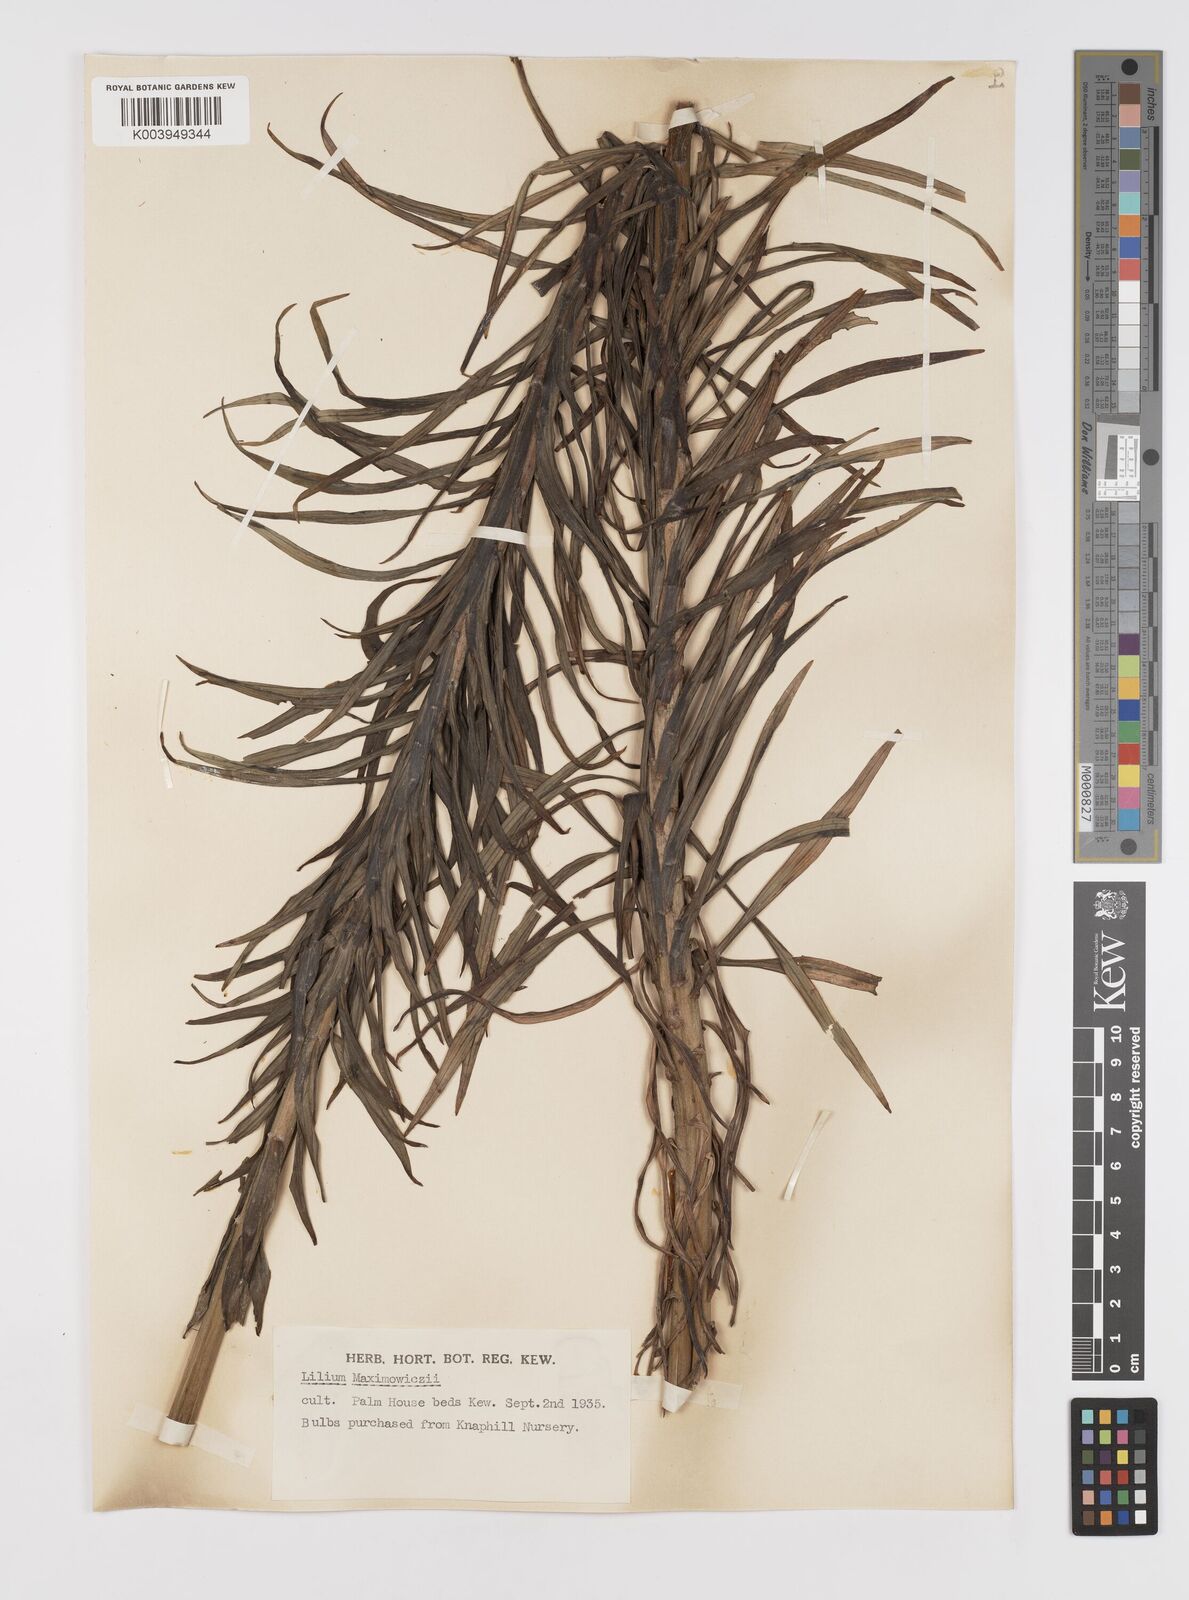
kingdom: Plantae
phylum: Tracheophyta
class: Liliopsida
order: Liliales
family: Liliaceae
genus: Lilium
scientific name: Lilium leichtlinii
